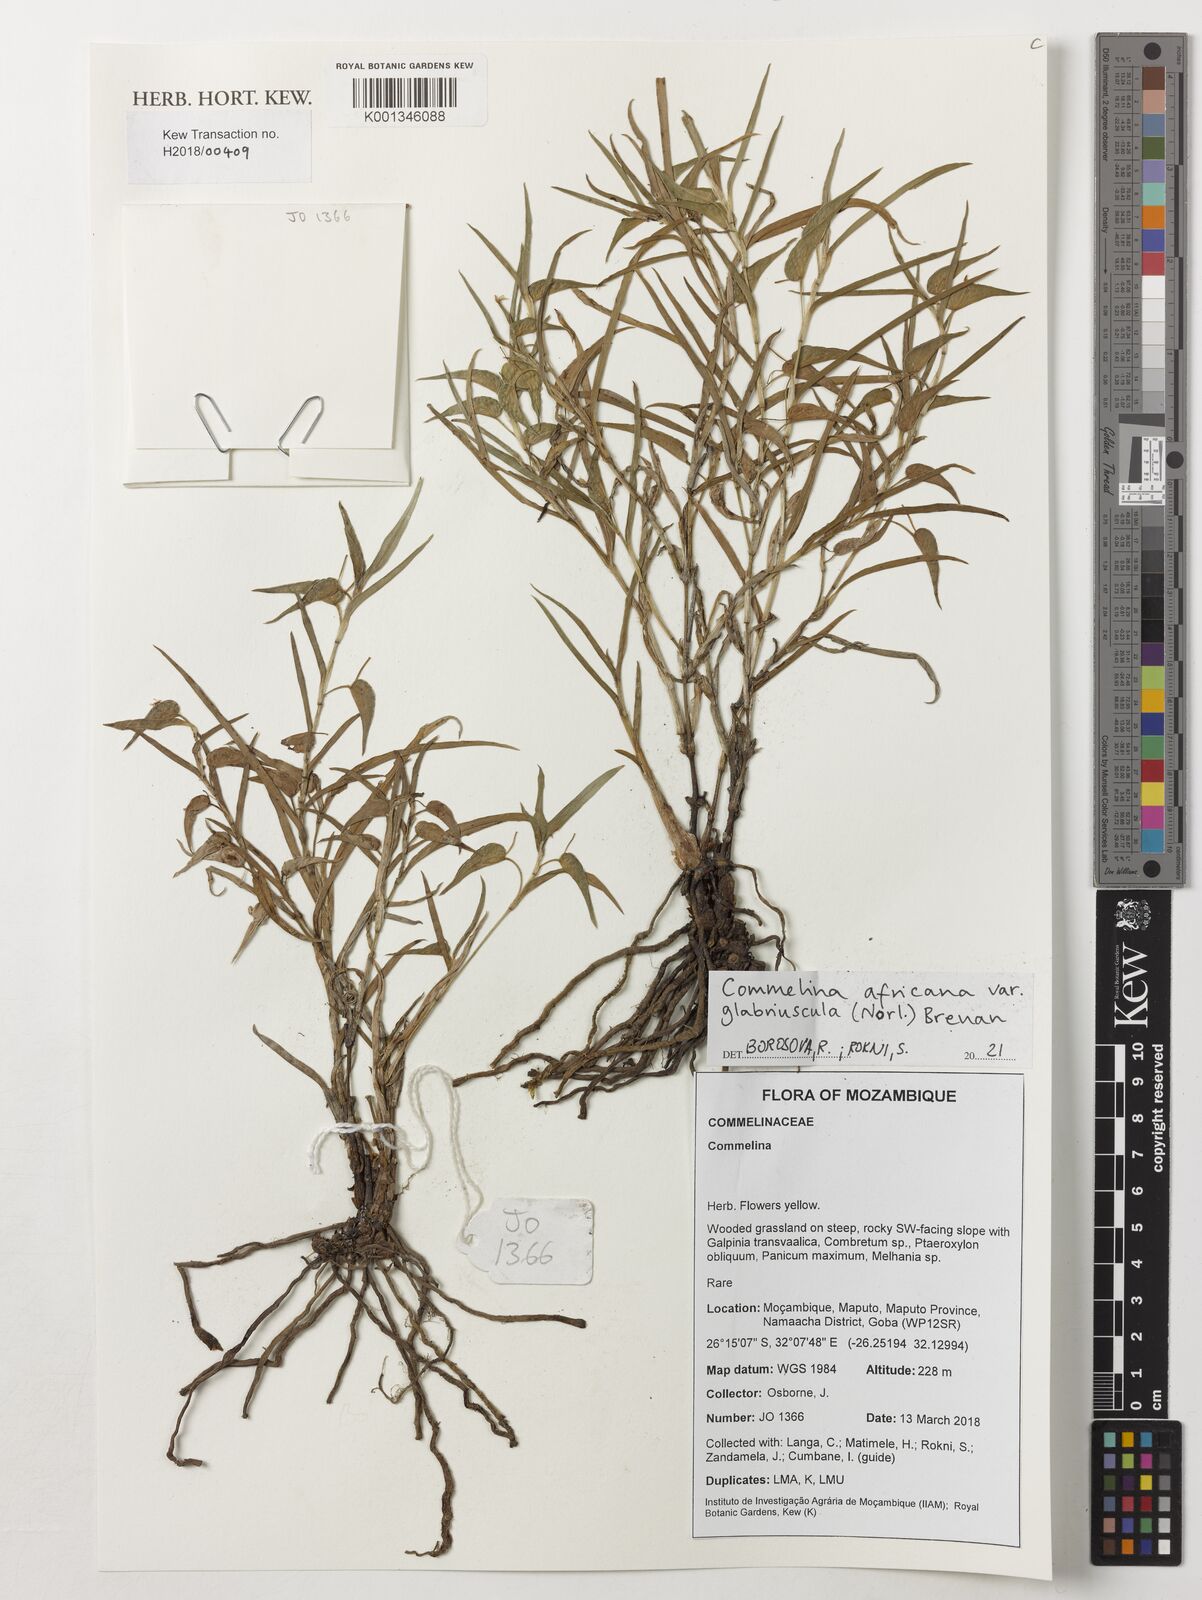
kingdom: Plantae
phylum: Tracheophyta
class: Liliopsida
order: Commelinales
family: Commelinaceae
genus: Commelina
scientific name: Commelina
